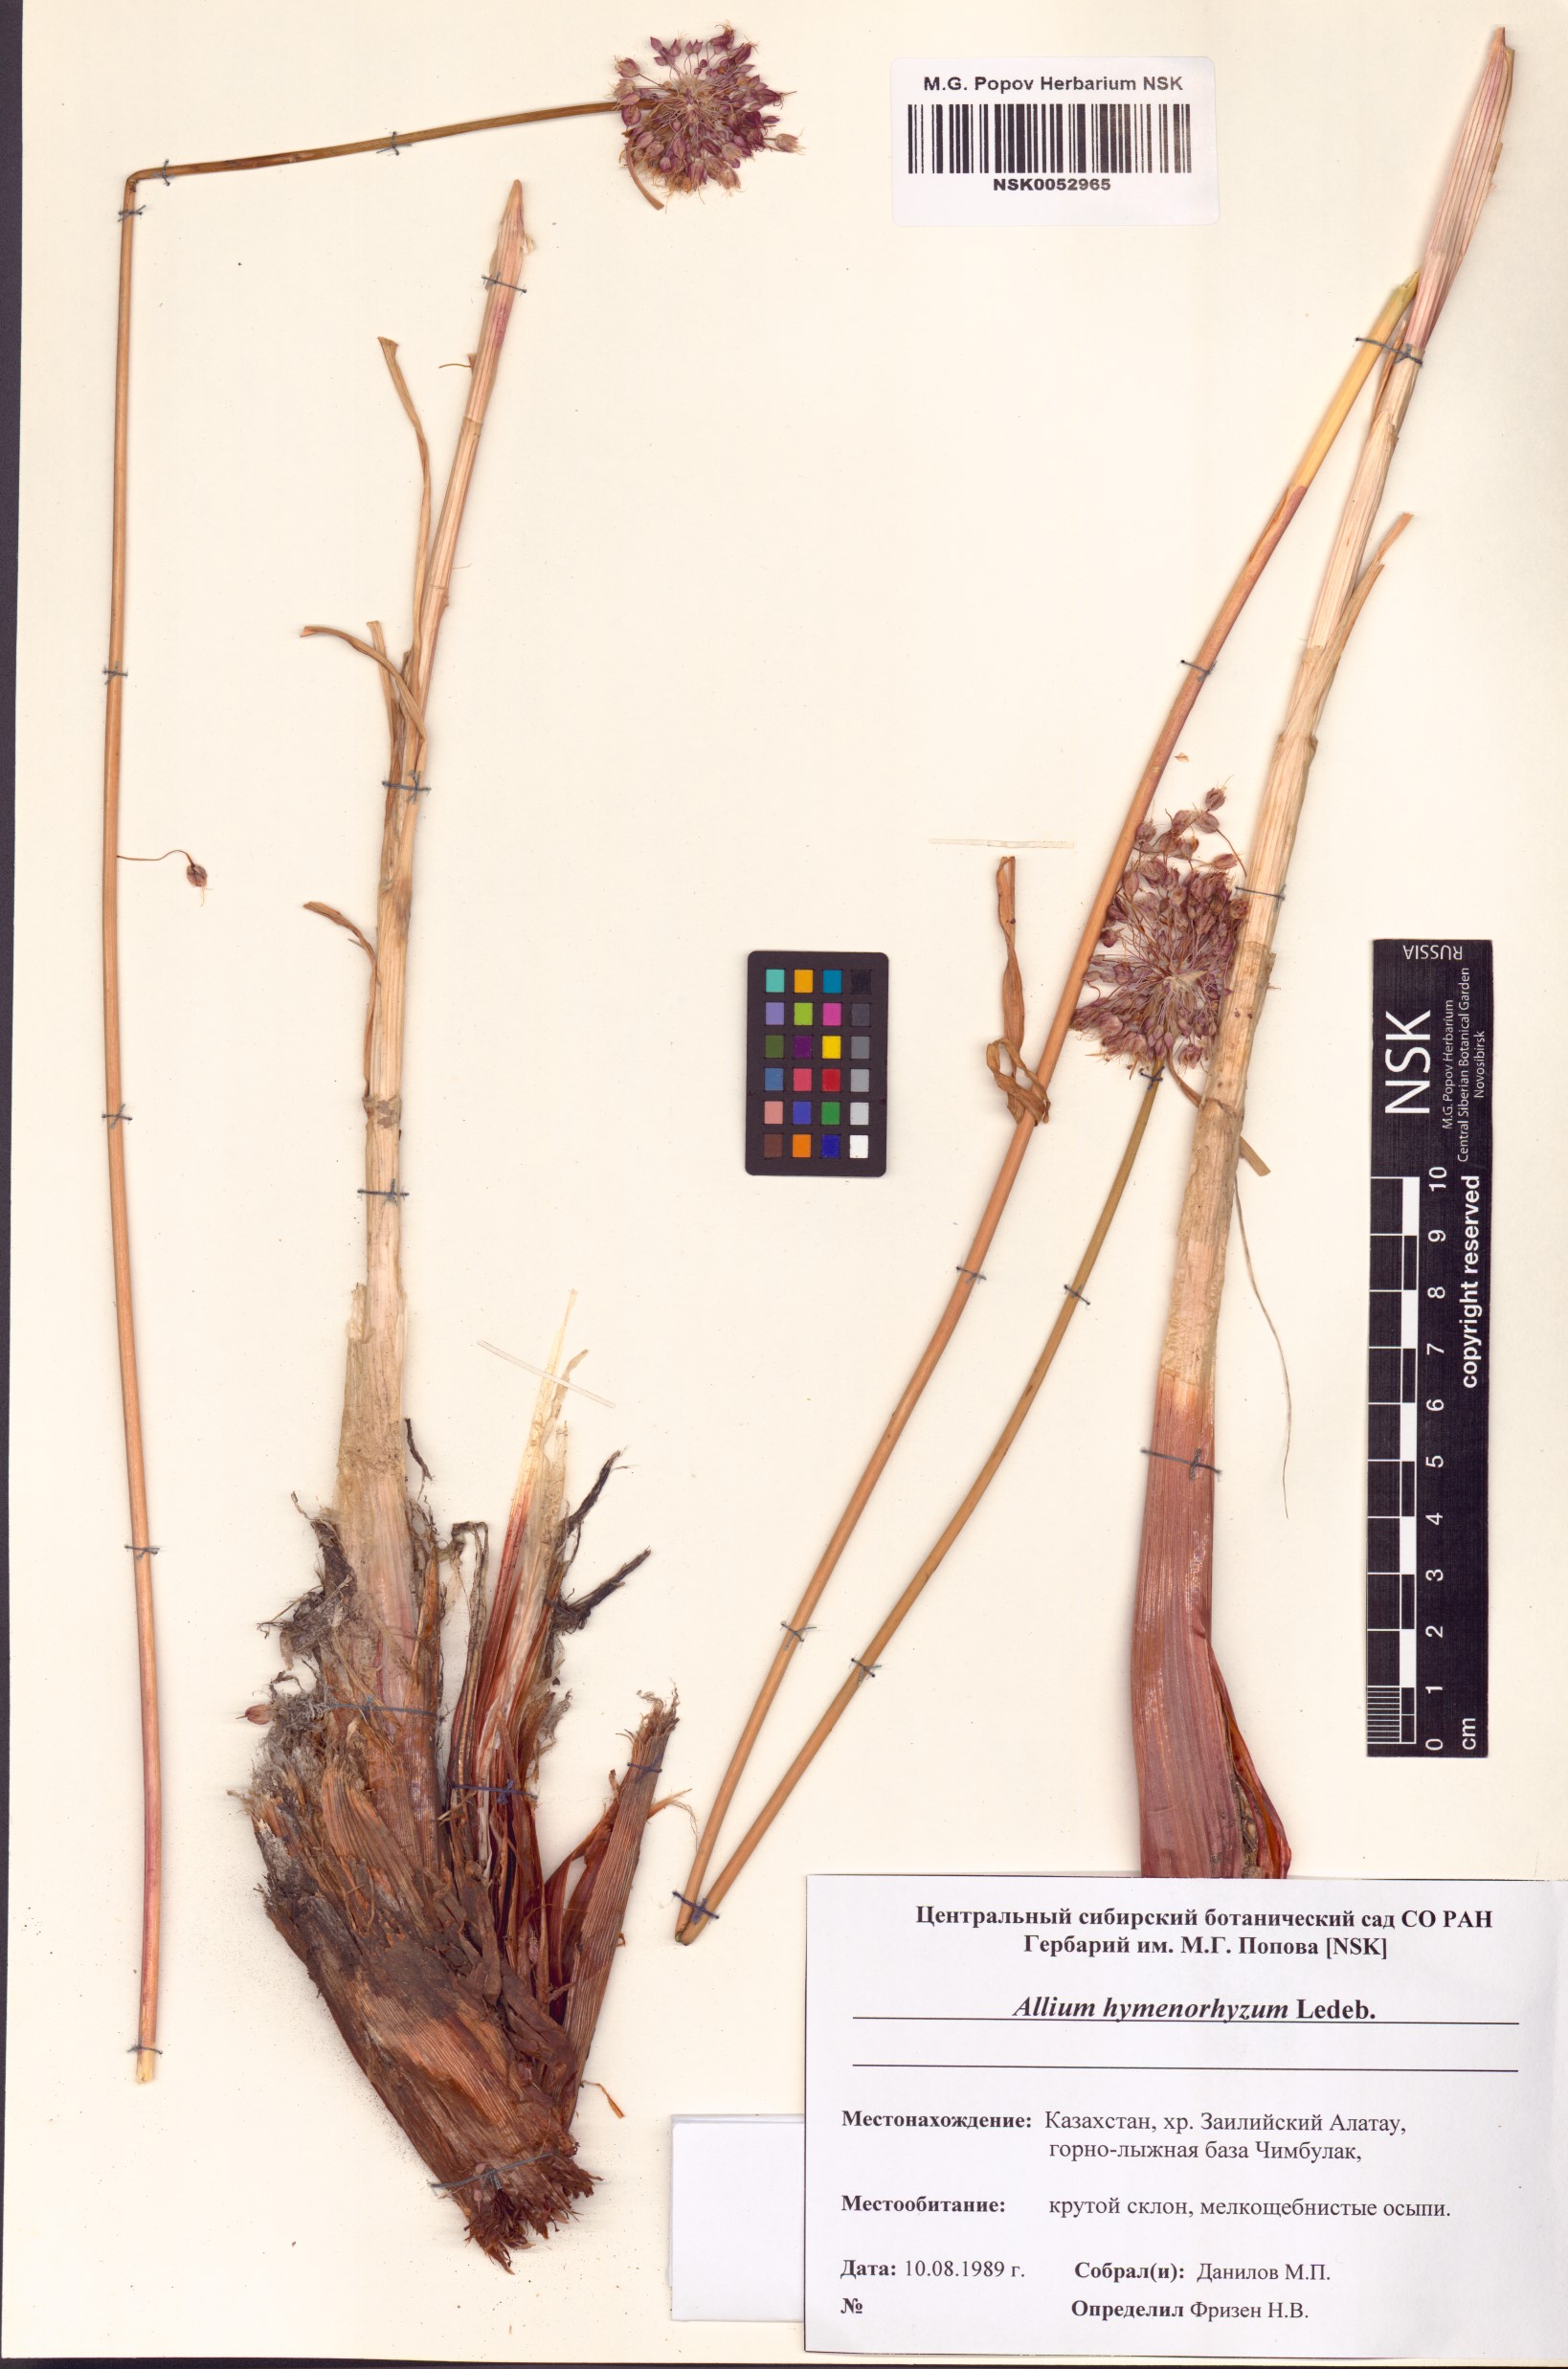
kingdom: Plantae
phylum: Tracheophyta
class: Liliopsida
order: Asparagales
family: Amaryllidaceae
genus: Allium
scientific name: Allium hymenorhizum
